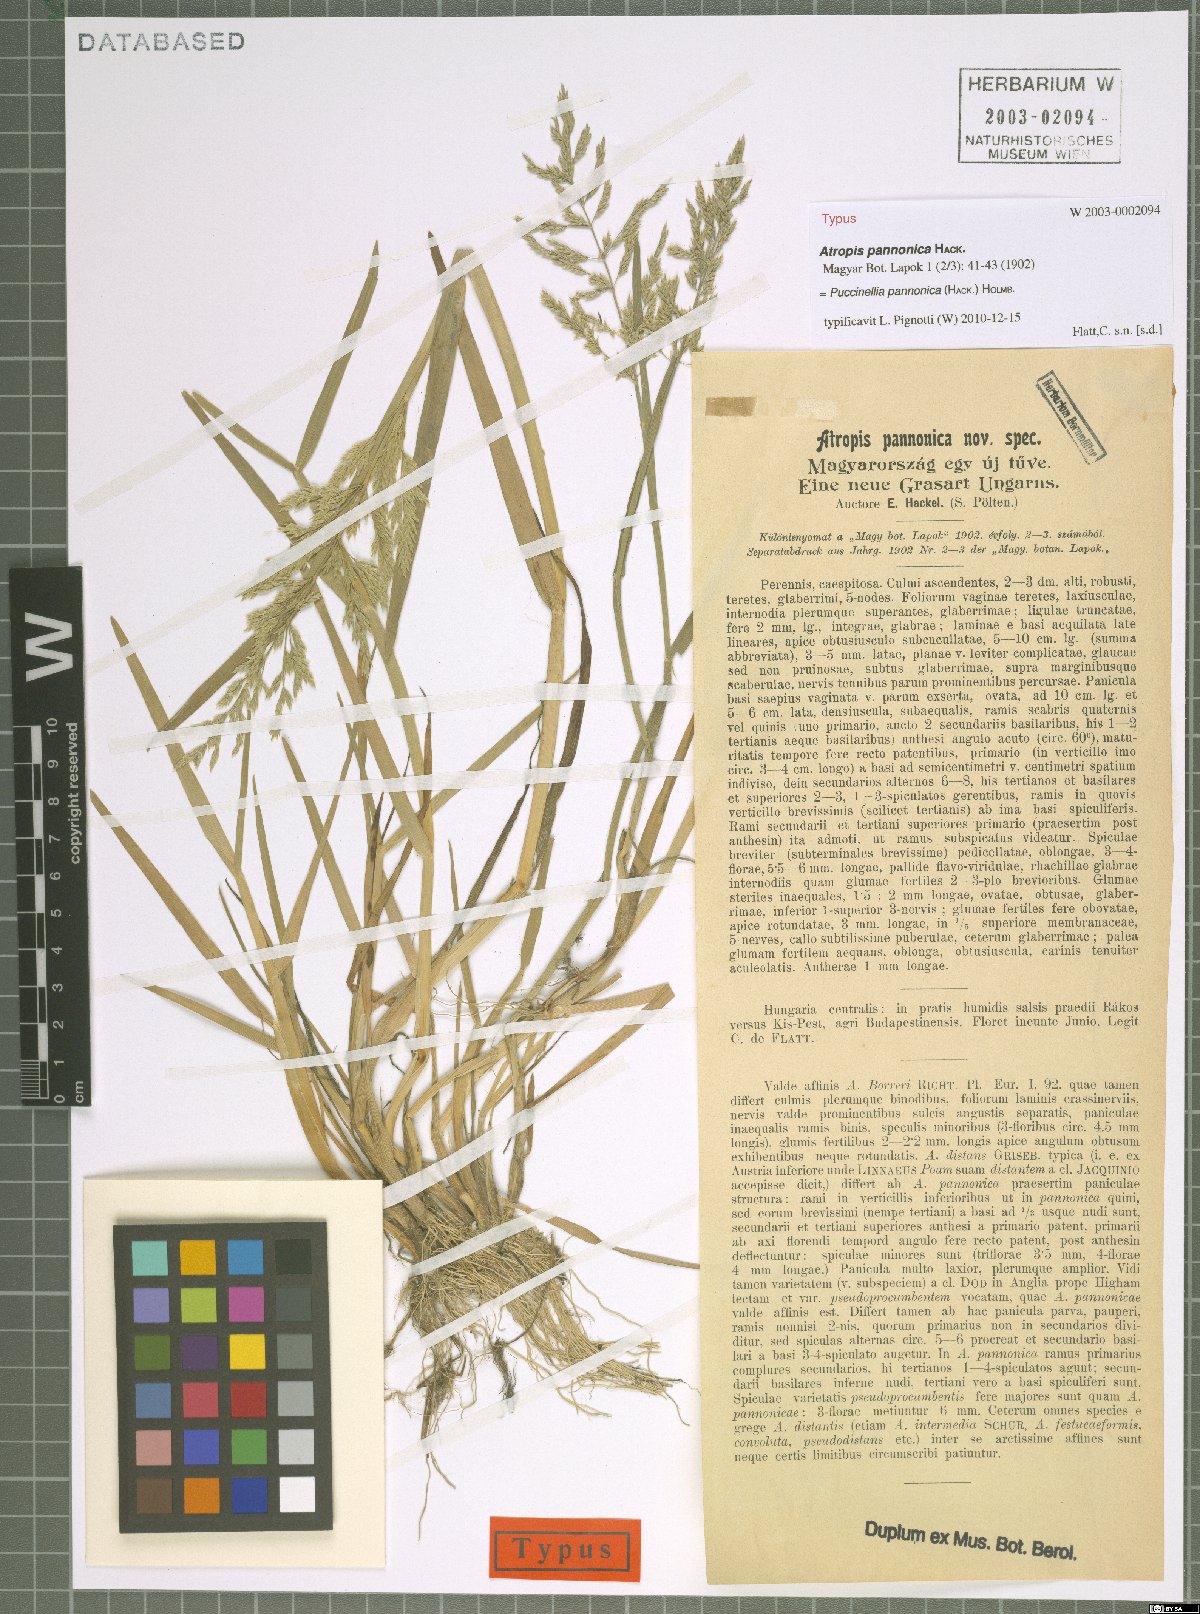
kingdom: Plantae
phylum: Tracheophyta
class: Liliopsida
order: Poales
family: Poaceae
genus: Puccinellia
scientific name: Puccinellia pannonica
